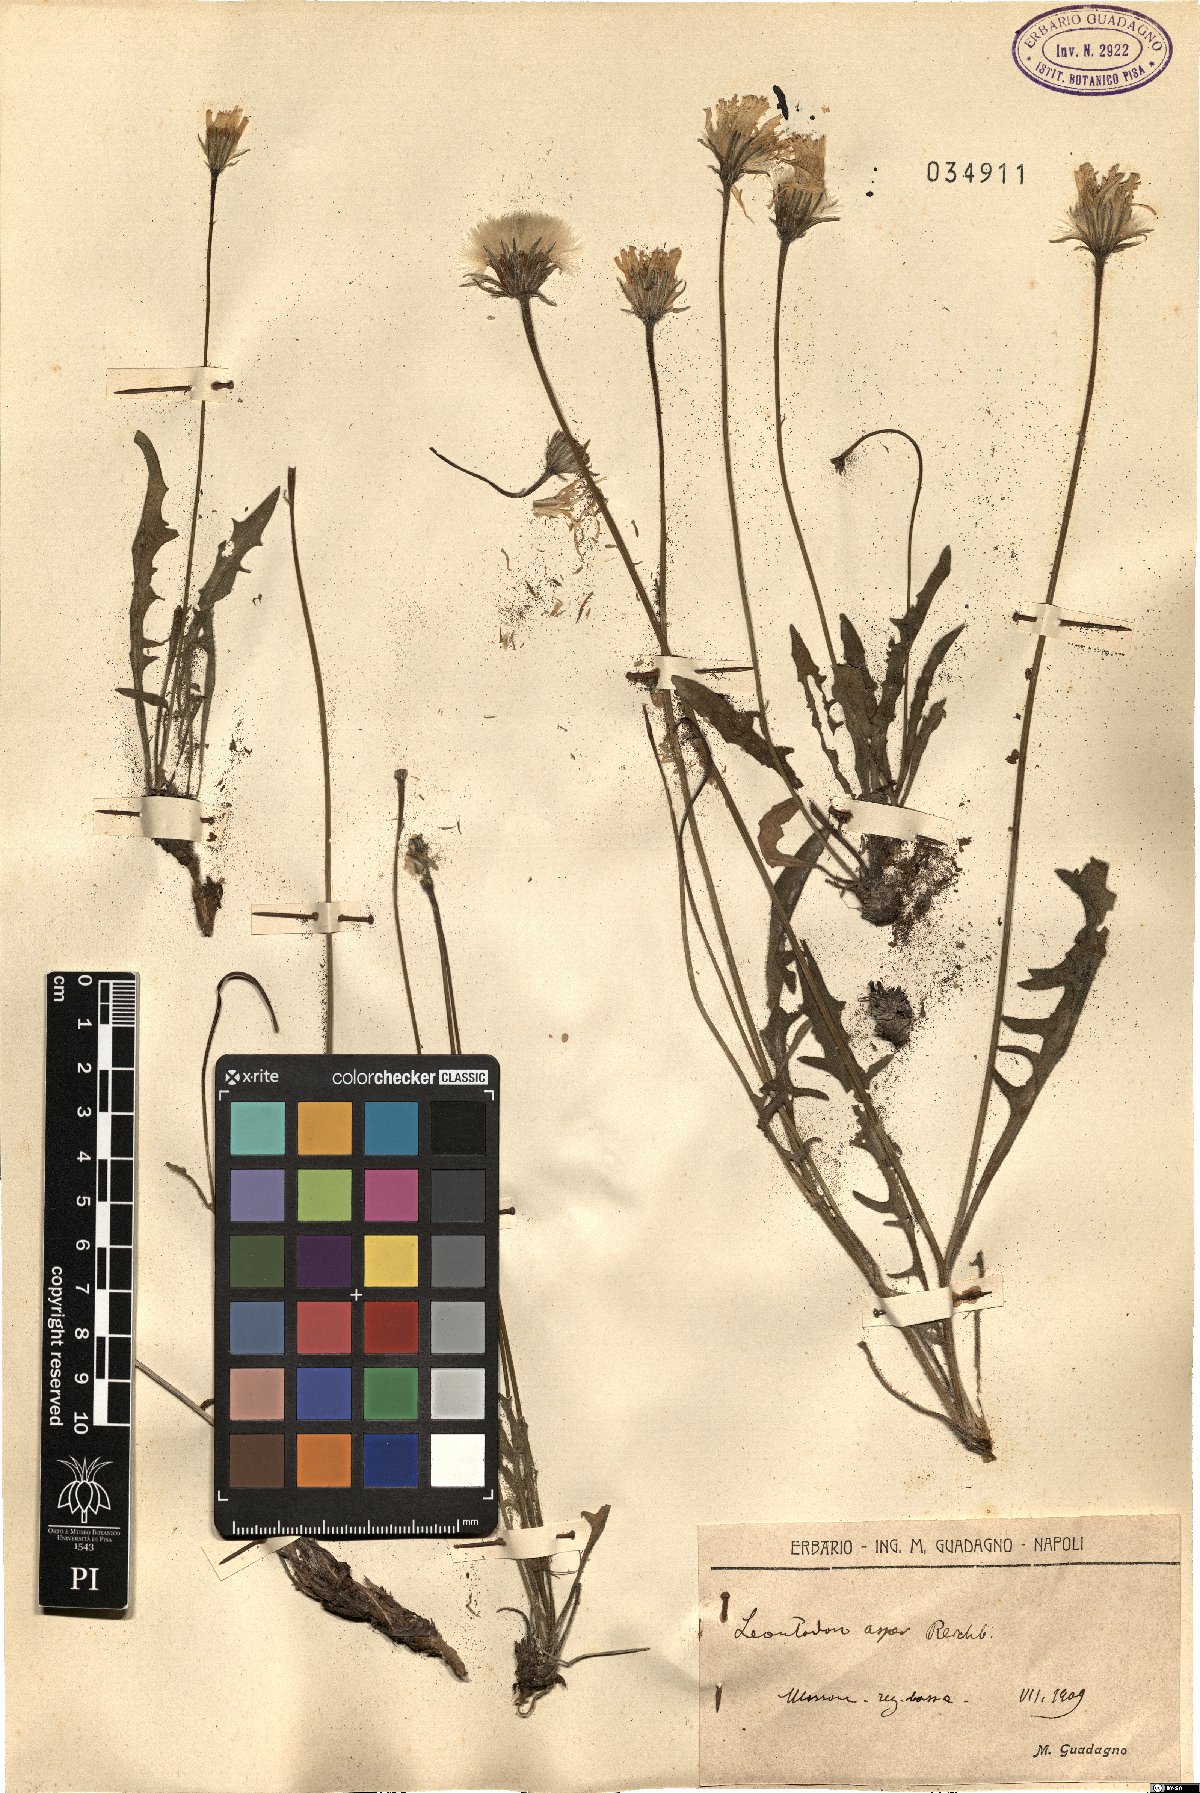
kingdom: Plantae
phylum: Tracheophyta
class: Magnoliopsida
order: Asterales
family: Asteraceae
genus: Leontodon
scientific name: Leontodon biscutellifolius
